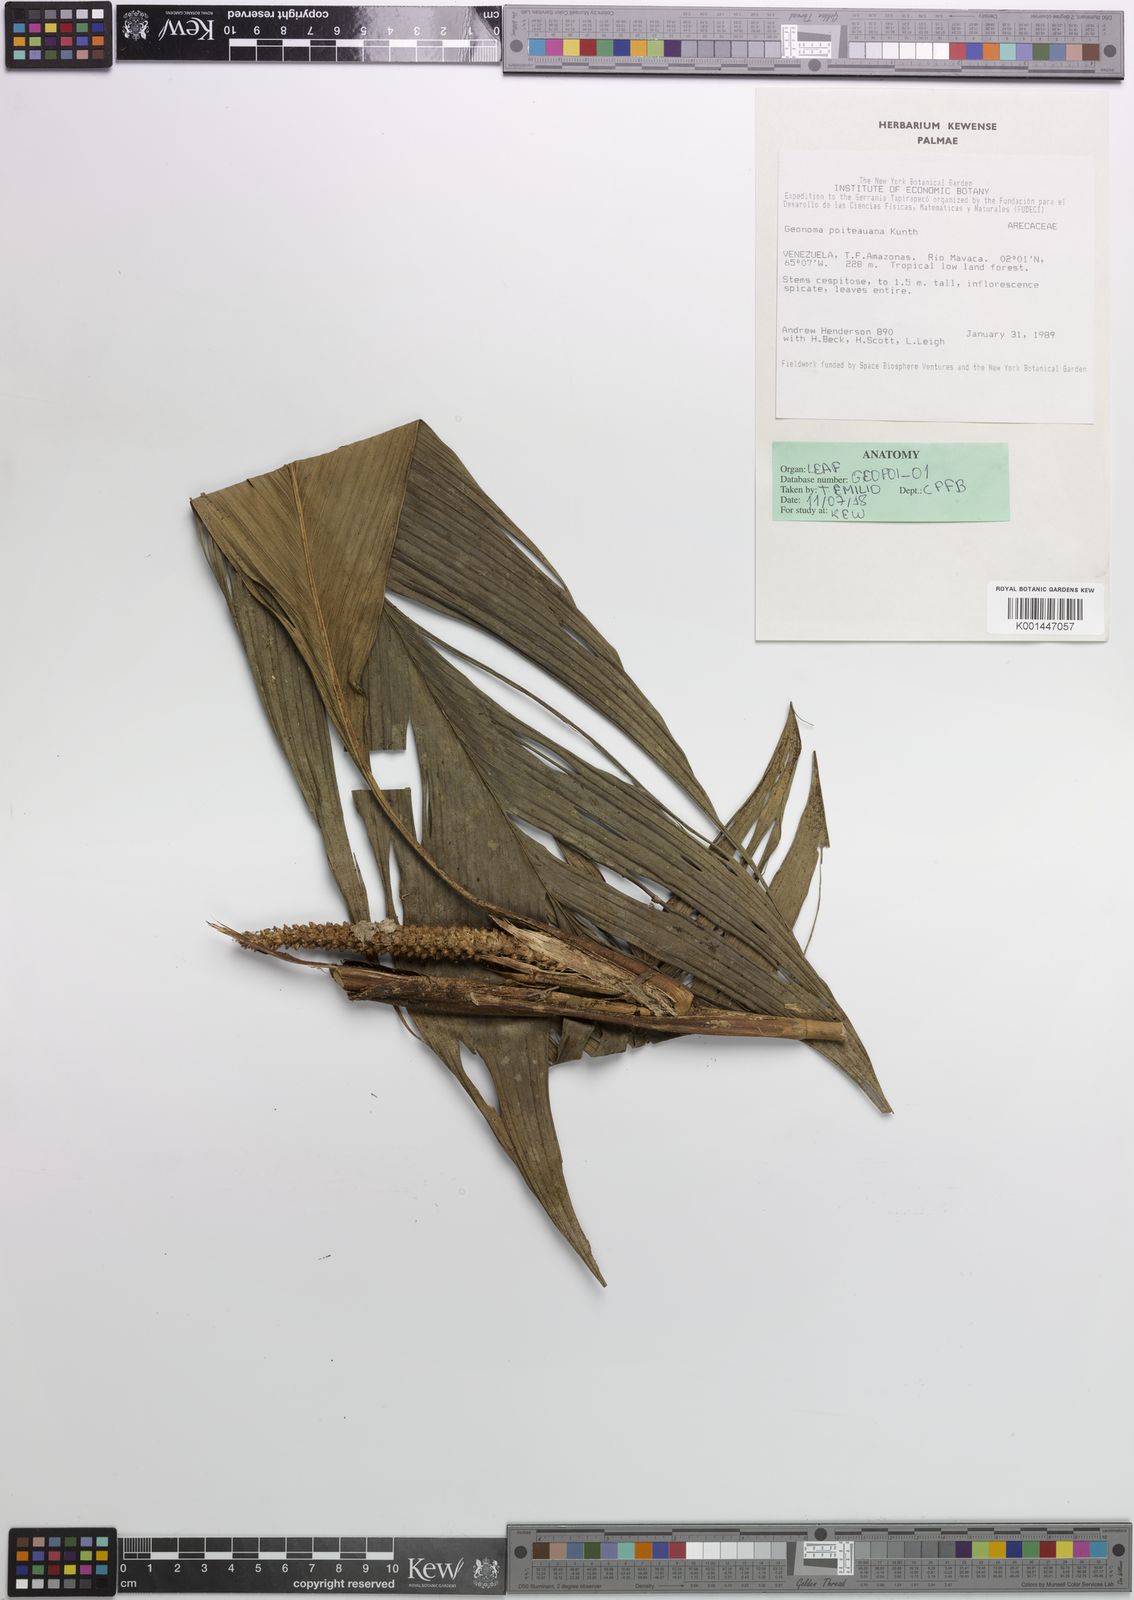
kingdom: Plantae
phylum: Tracheophyta
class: Liliopsida
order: Arecales
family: Arecaceae
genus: Geonoma
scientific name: Geonoma poiteauana
